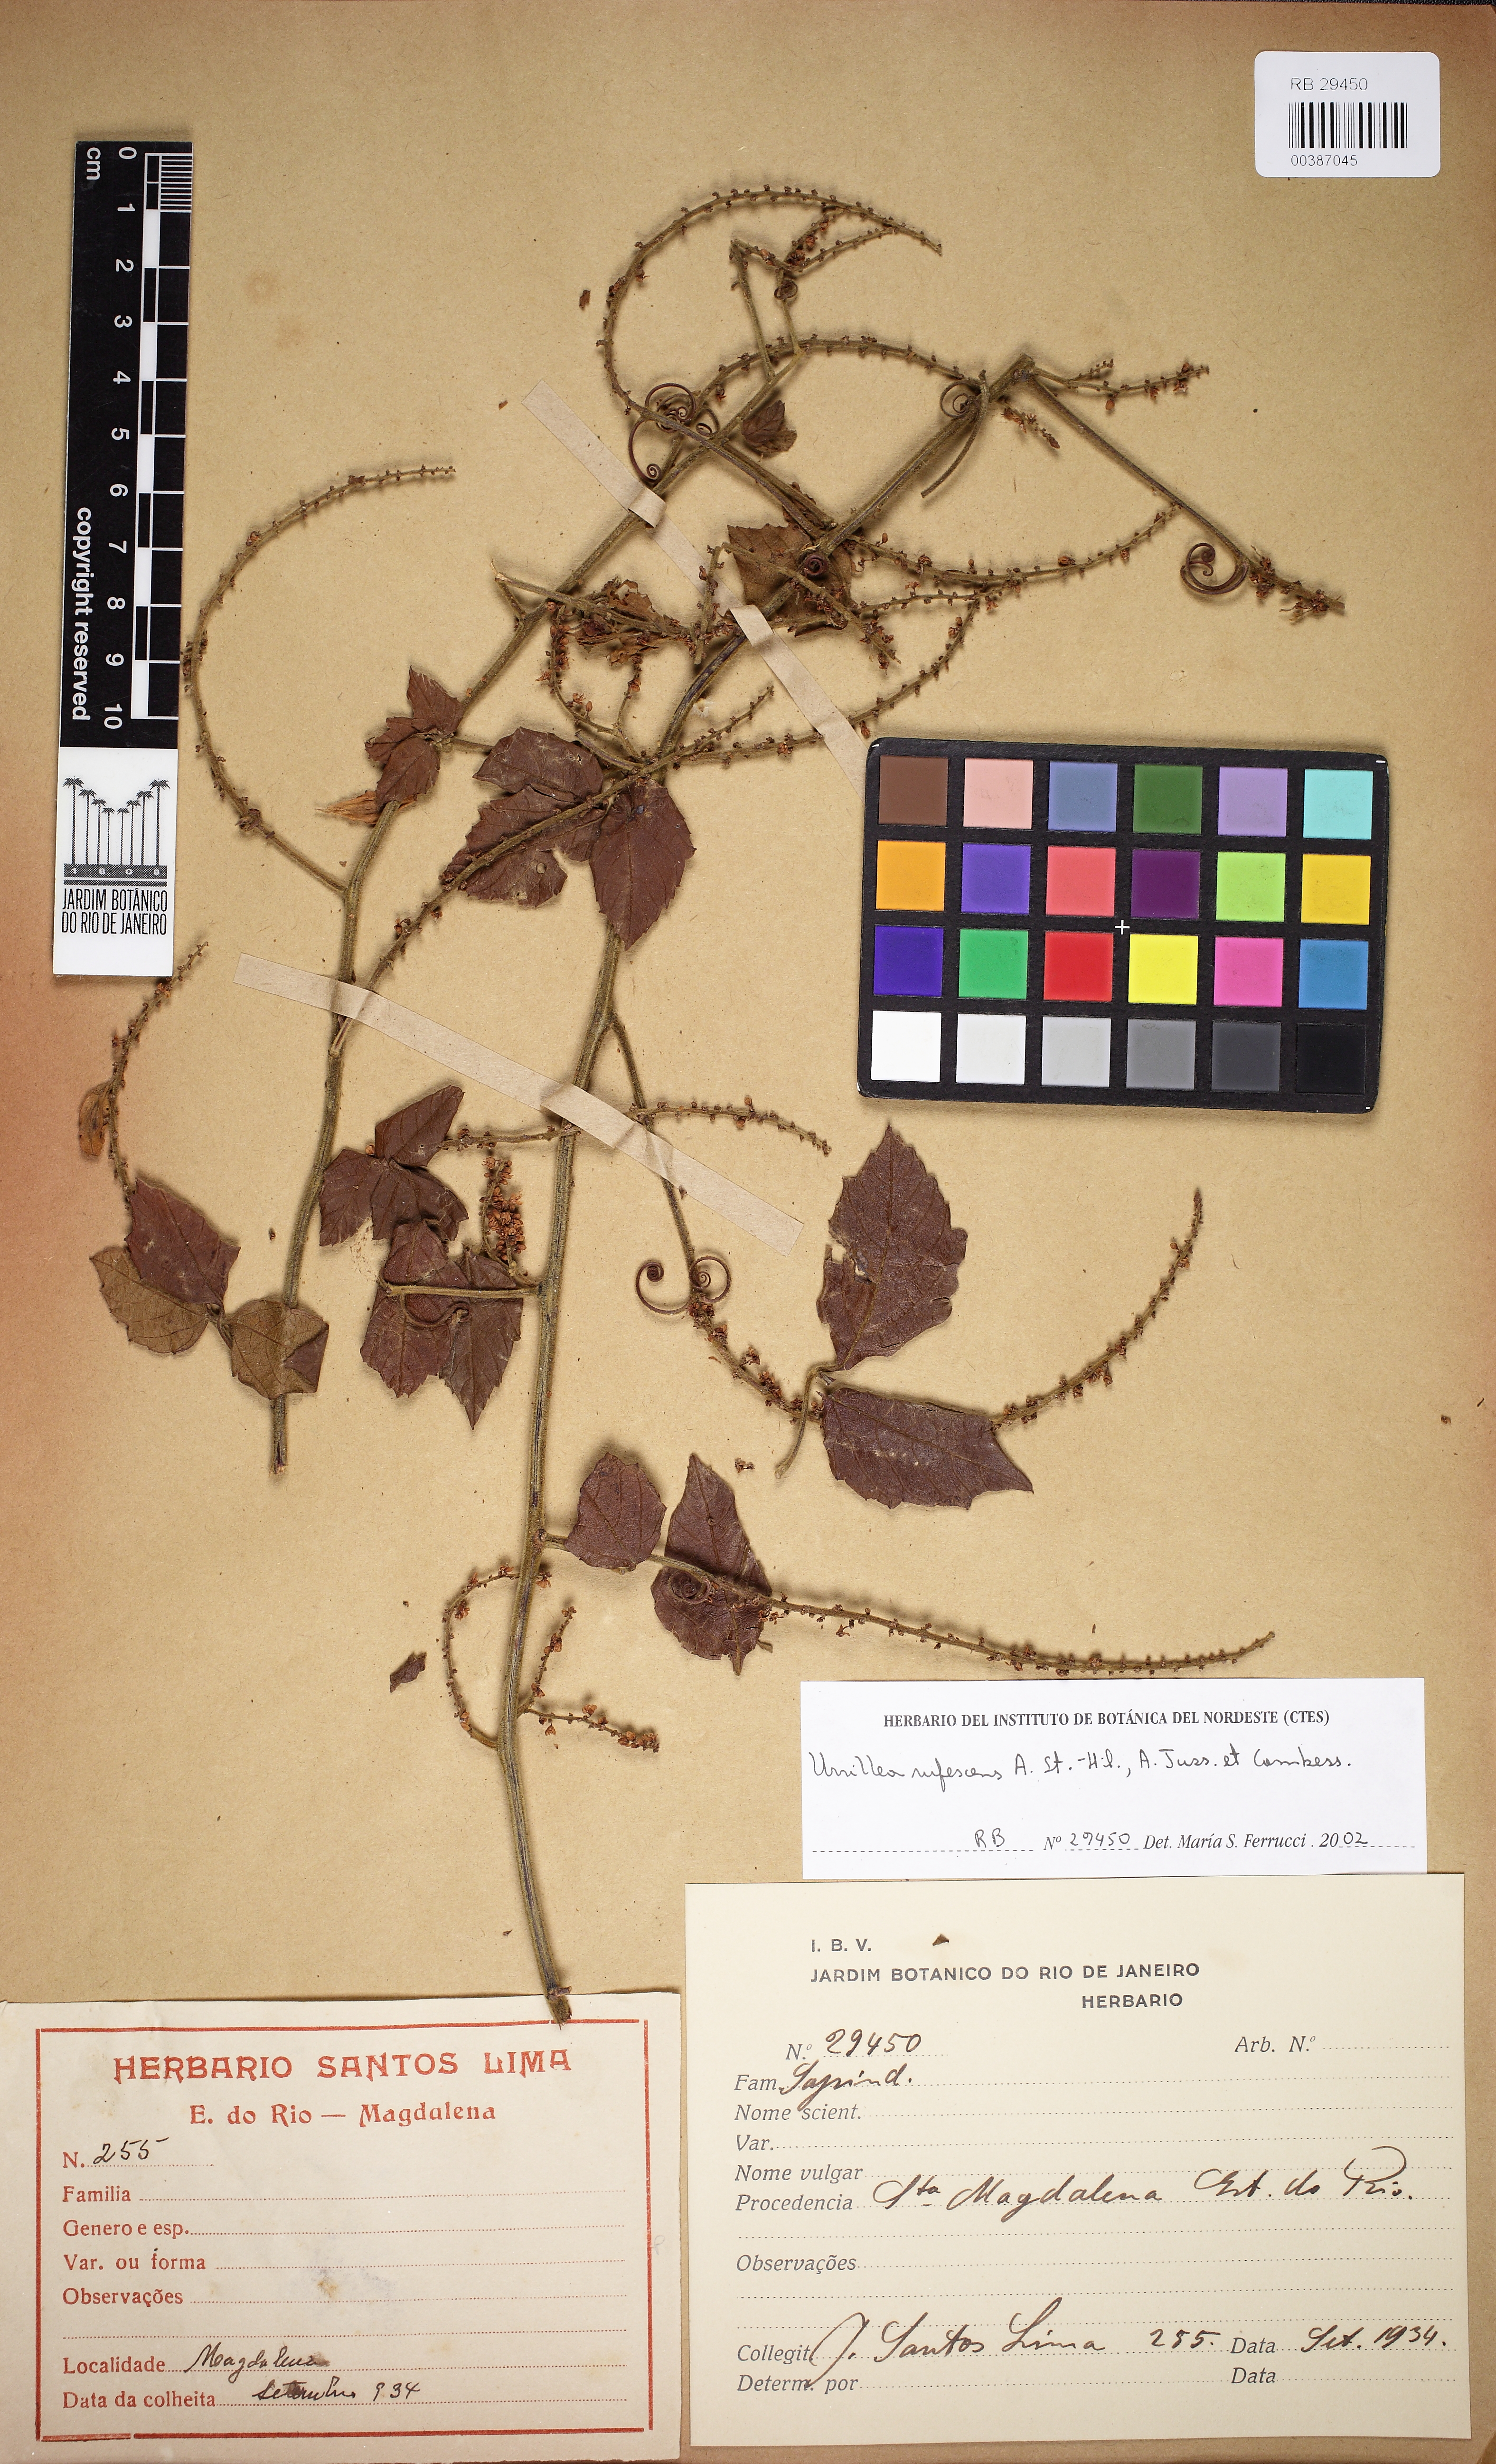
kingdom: Plantae
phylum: Tracheophyta
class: Magnoliopsida
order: Sapindales
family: Sapindaceae
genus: Urvillea
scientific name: Urvillea rufescens
